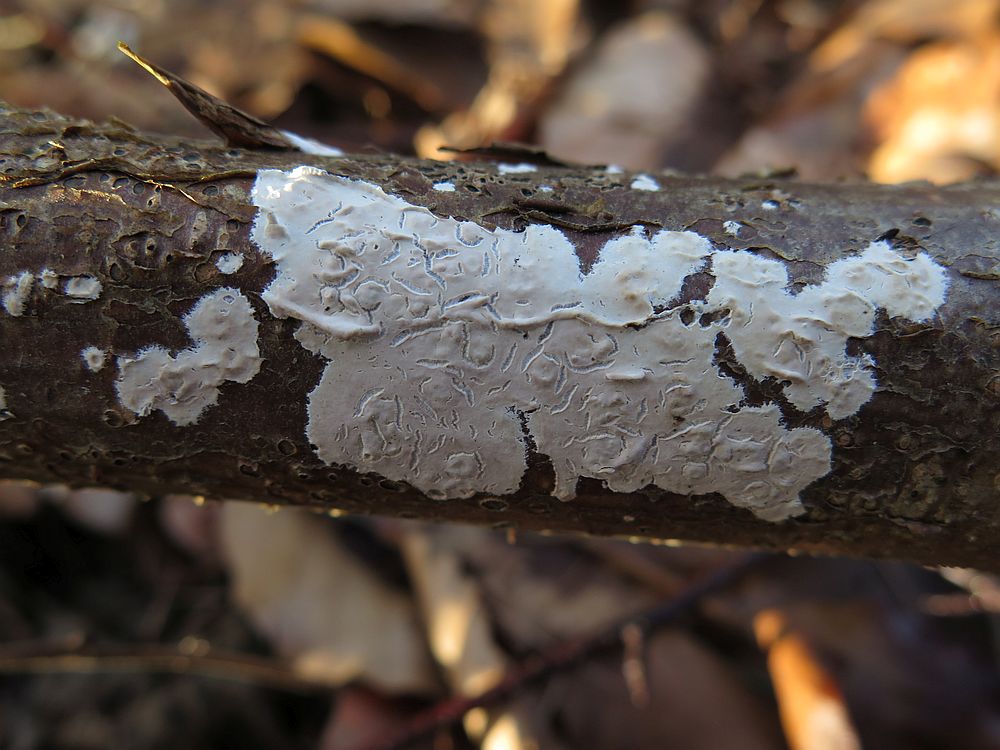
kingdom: Fungi
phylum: Basidiomycota
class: Agaricomycetes
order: Agaricales
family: Physalacriaceae
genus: Cylindrobasidium
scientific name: Cylindrobasidium evolvens
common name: sprækkehinde
